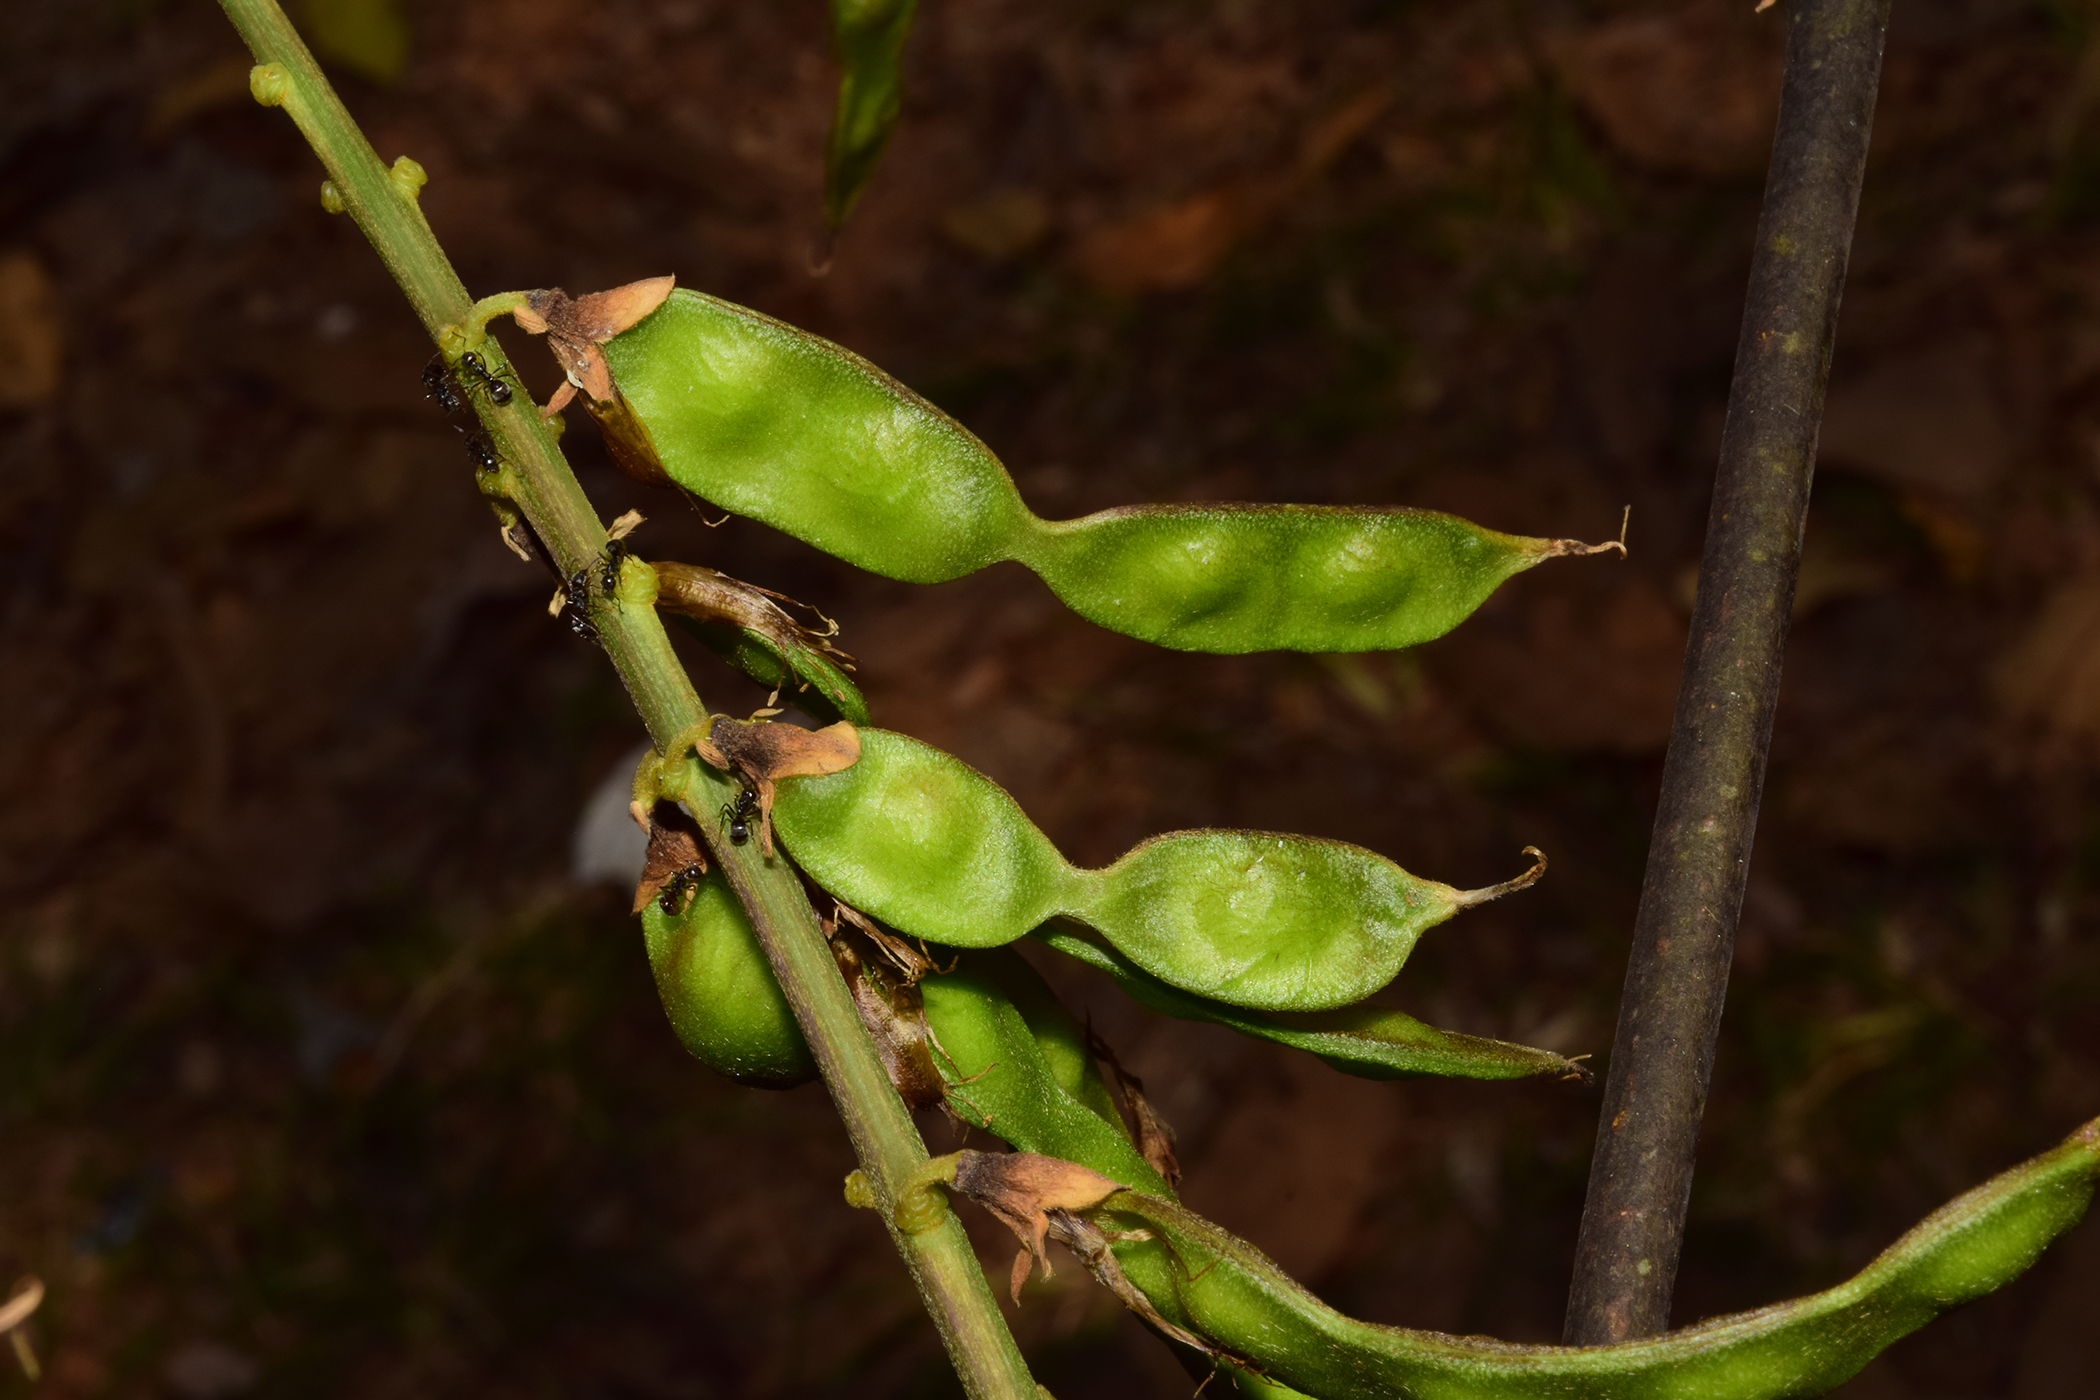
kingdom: Plantae
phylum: Tracheophyta
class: Magnoliopsida
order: Fabales
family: Fabaceae
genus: Pueraria
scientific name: Pueraria mirifica
